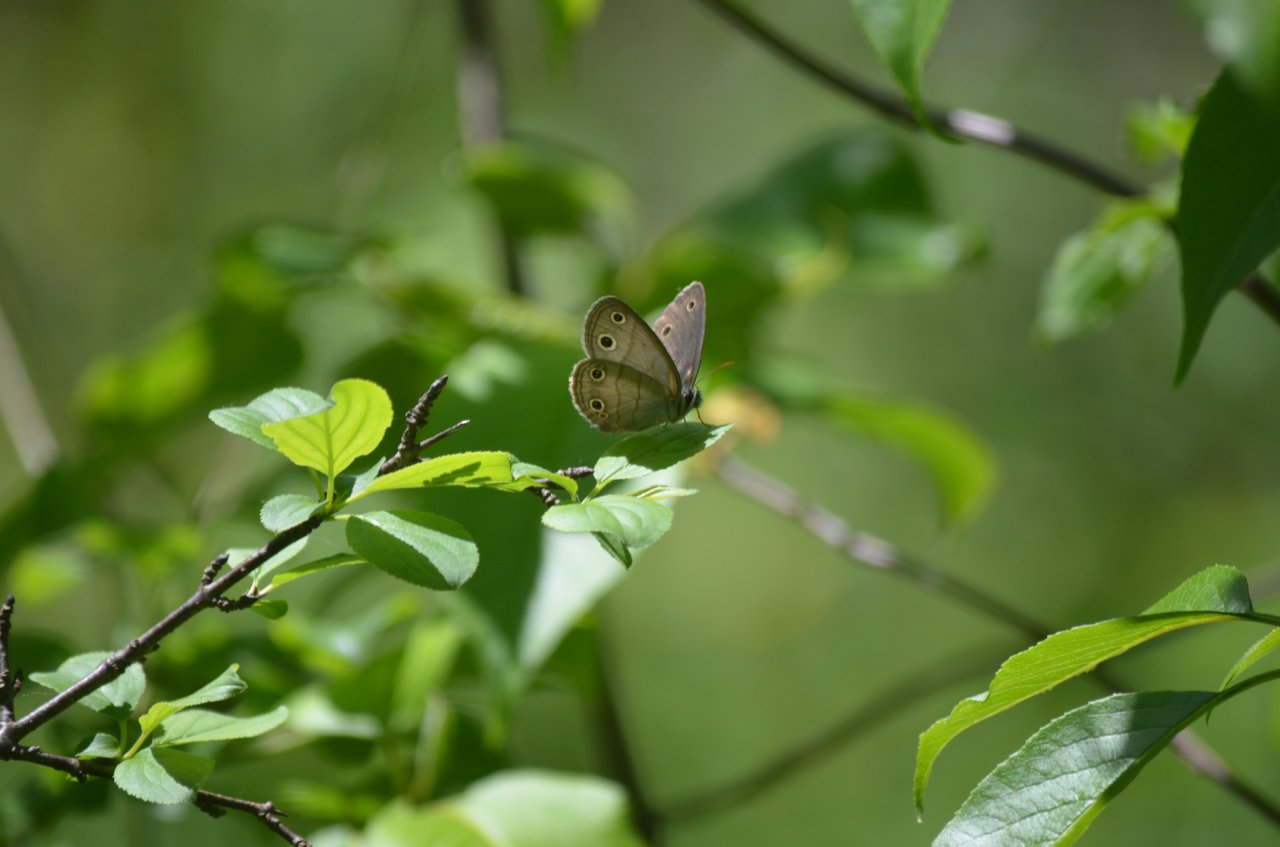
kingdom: Animalia
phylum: Arthropoda
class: Insecta
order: Lepidoptera
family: Nymphalidae
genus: Euptychia
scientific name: Euptychia cymela
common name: Little Wood Satyr
